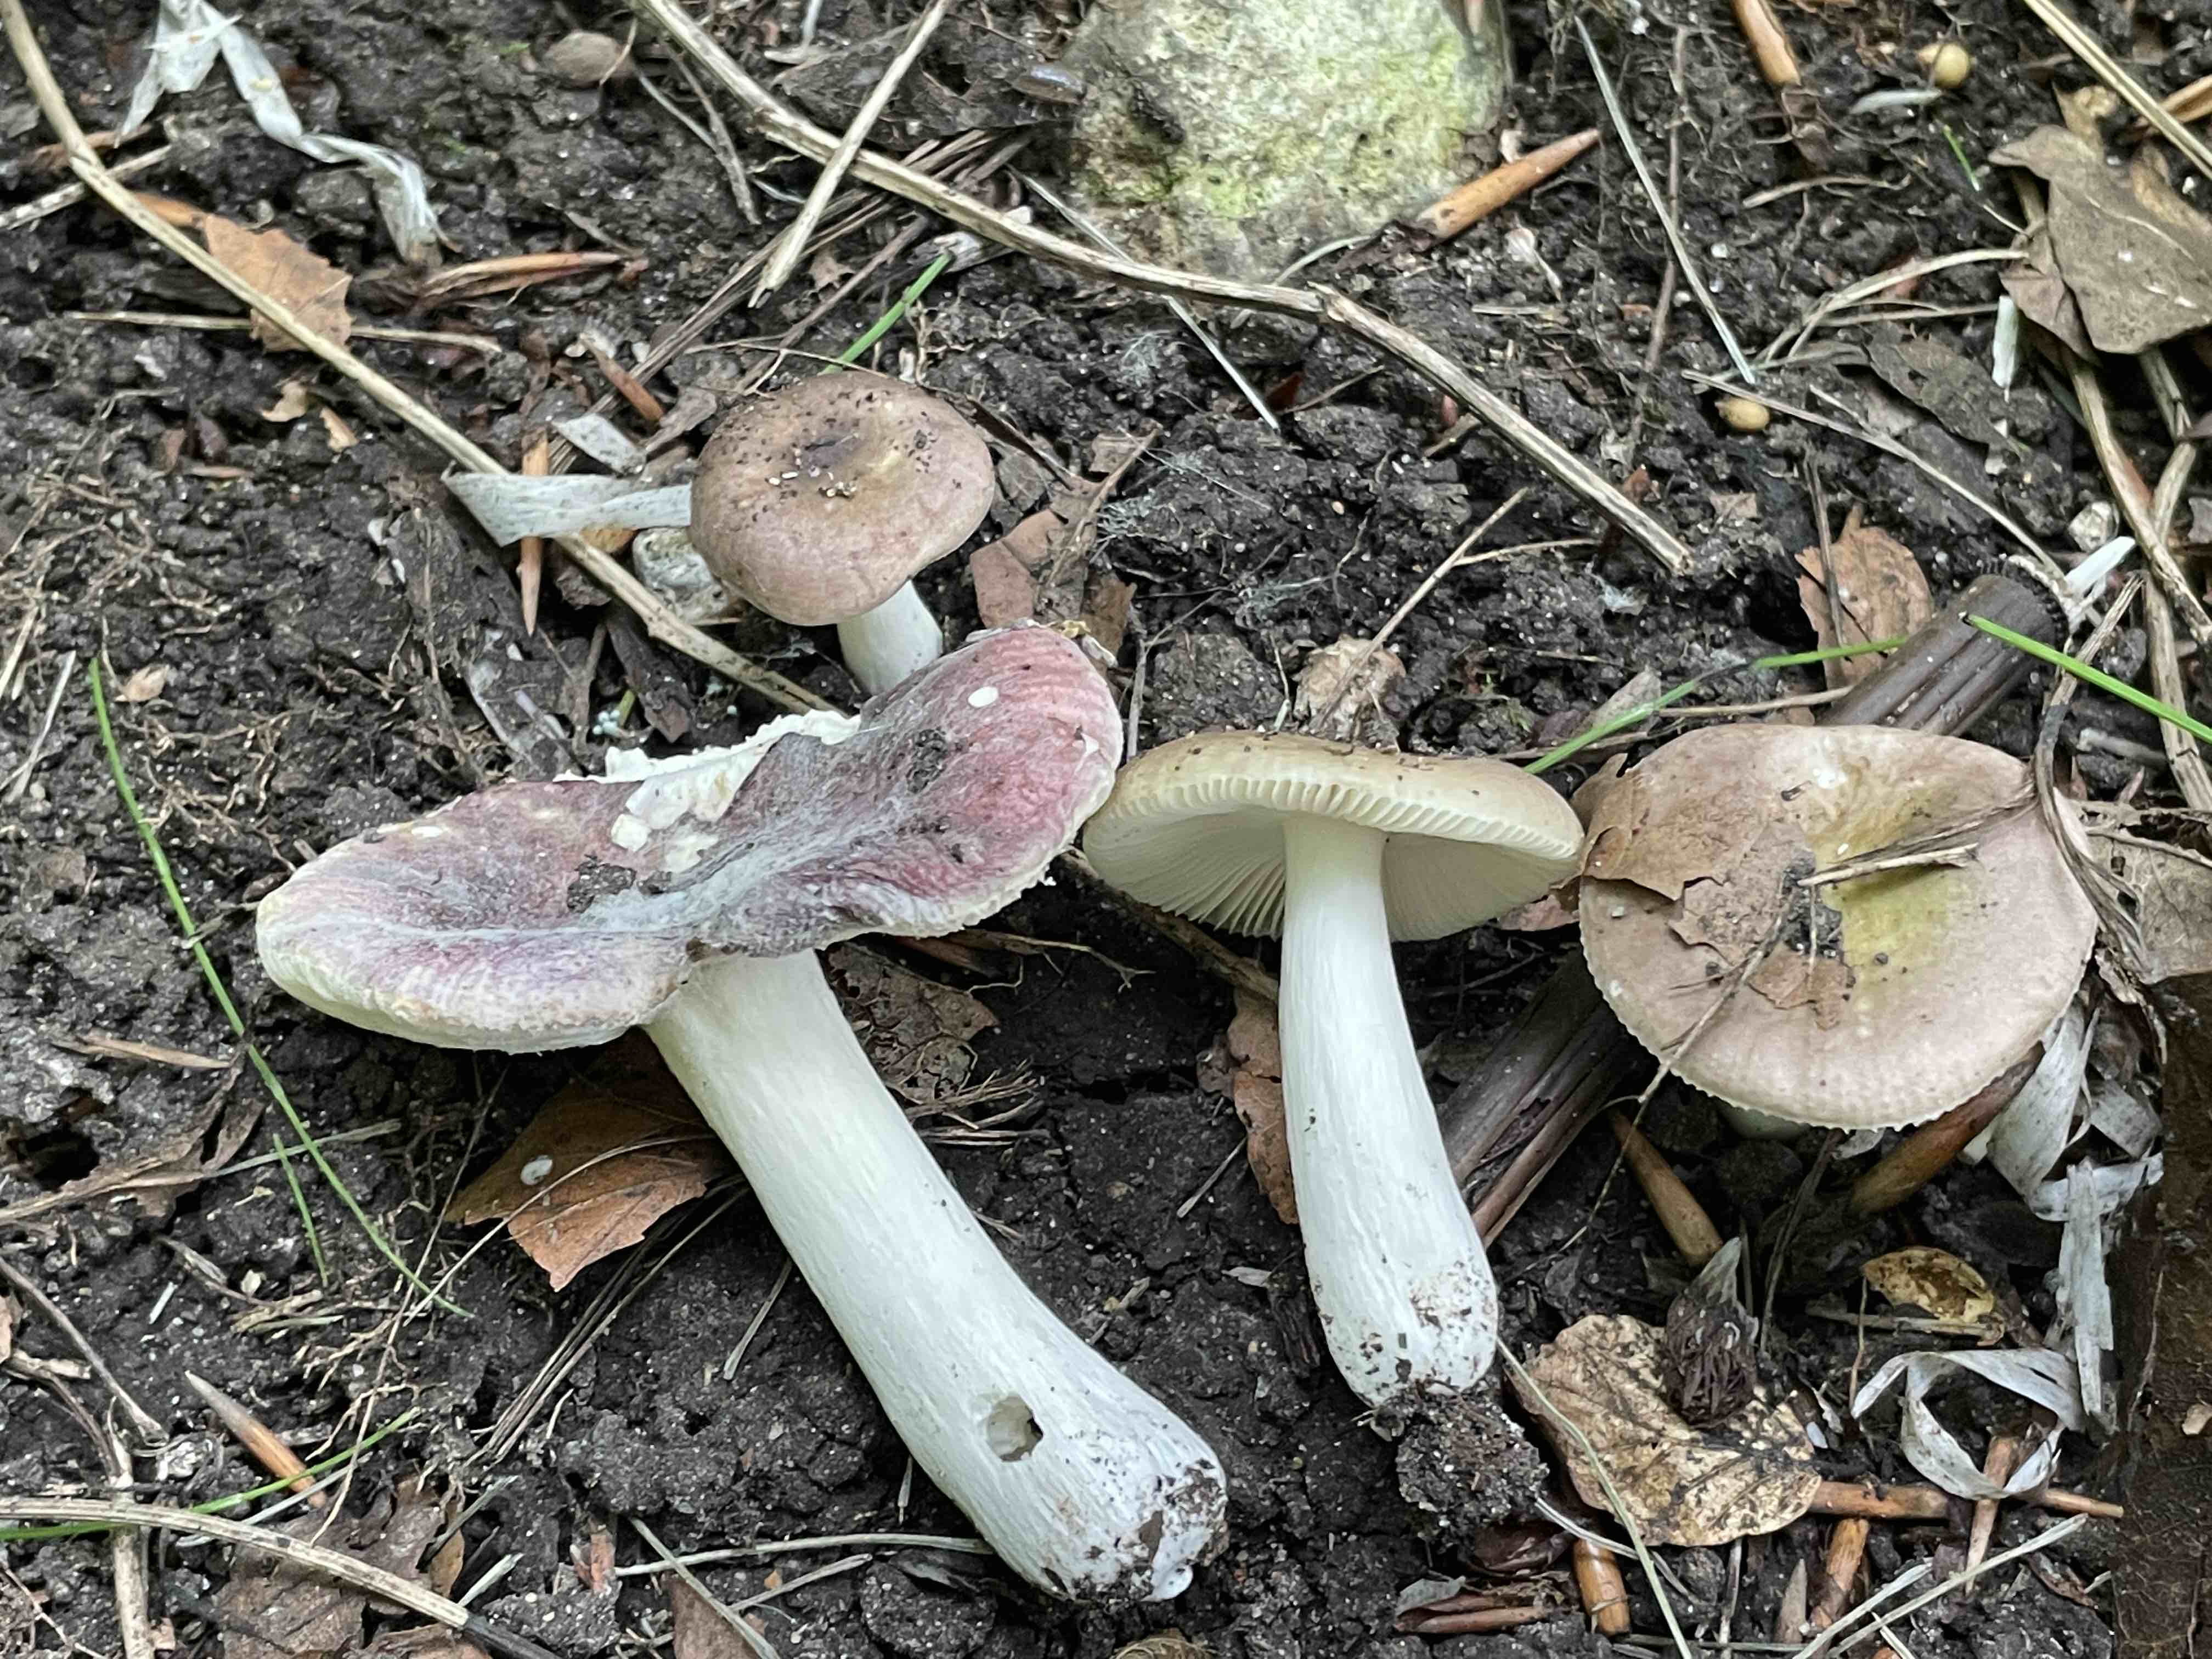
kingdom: Fungi
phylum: Basidiomycota
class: Agaricomycetes
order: Russulales
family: Russulaceae
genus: Russula
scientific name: Russula pelargonia
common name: pelargonie-skørhat
